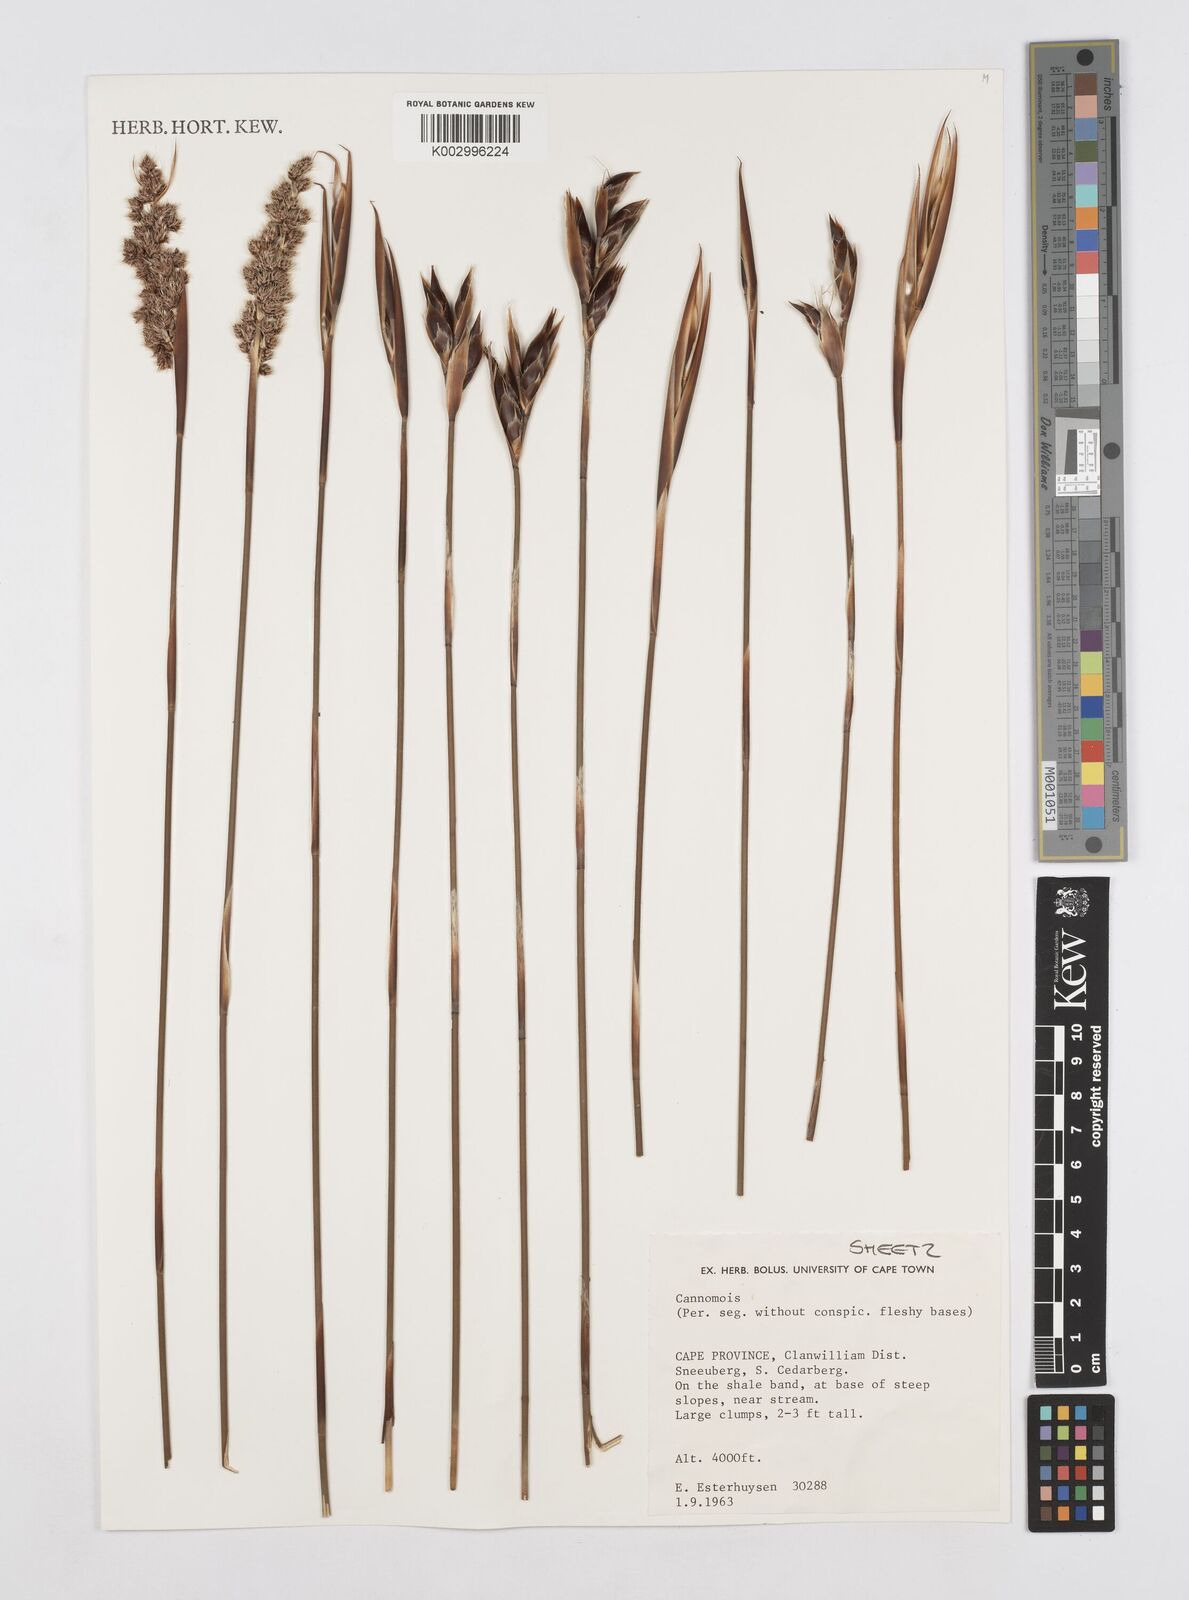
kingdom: Plantae
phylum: Tracheophyta
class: Liliopsida
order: Poales
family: Restionaceae
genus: Cannomois
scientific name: Cannomois
